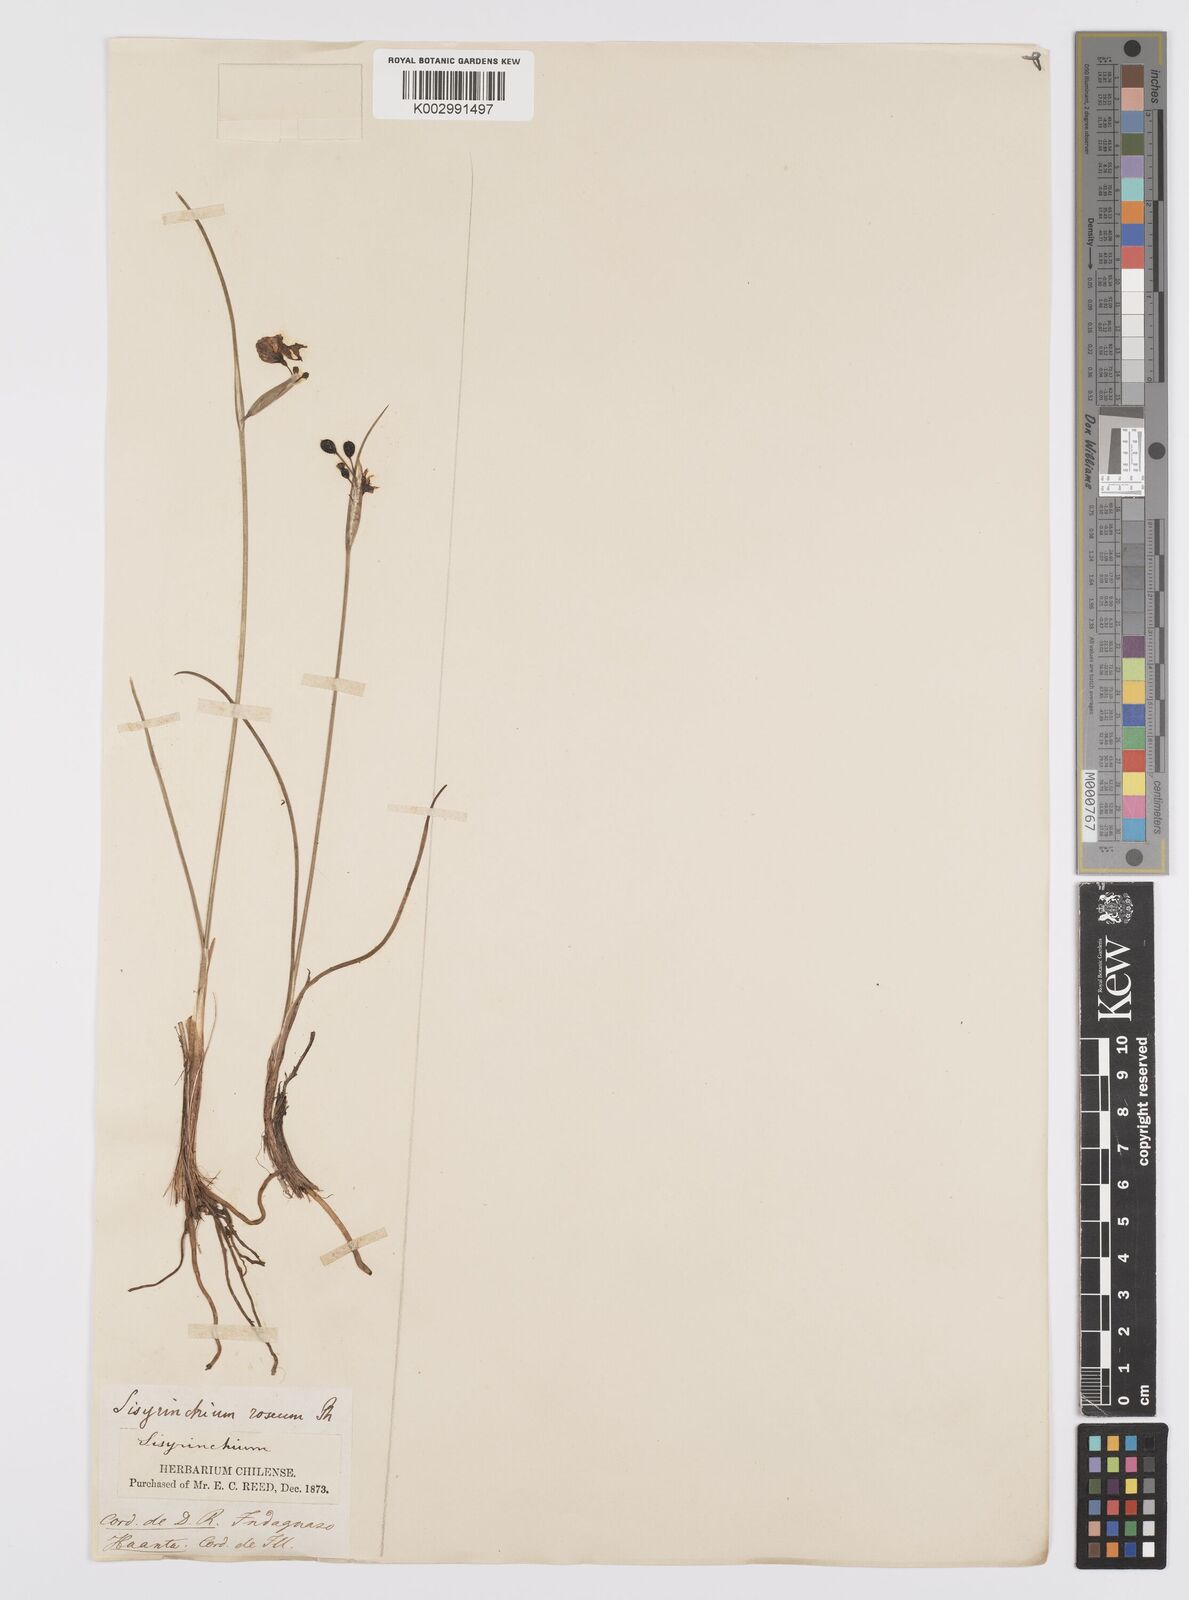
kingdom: Plantae
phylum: Tracheophyta
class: Liliopsida
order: Asparagales
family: Iridaceae
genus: Olsynium
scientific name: Olsynium junceum
